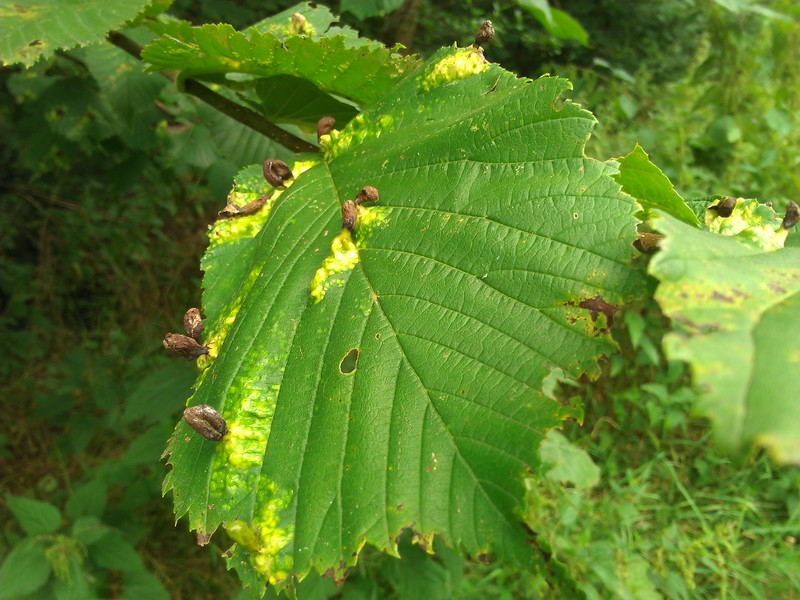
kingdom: Animalia
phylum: Arthropoda
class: Insecta
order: Hemiptera
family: Aphididae
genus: Tetraneura
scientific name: Tetraneura ulmi
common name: Aphid
